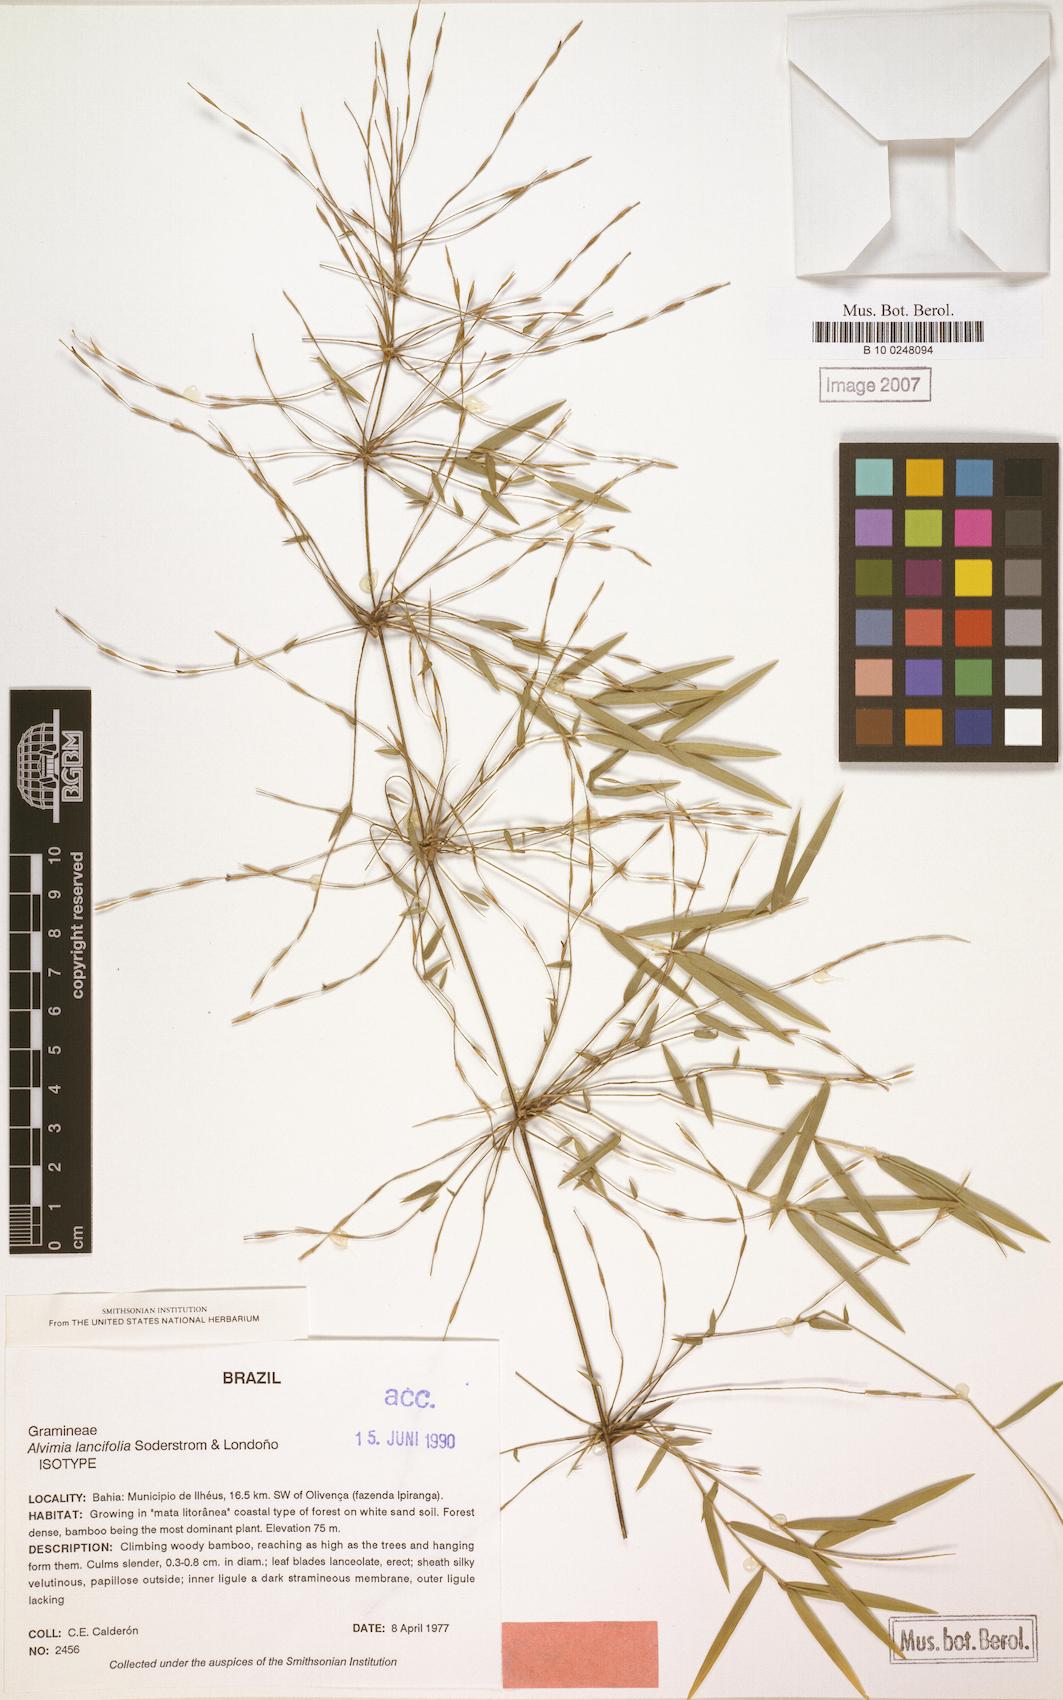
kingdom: Plantae
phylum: Tracheophyta
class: Liliopsida
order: Poales
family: Poaceae
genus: Alvimia
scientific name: Alvimia lancifolia
